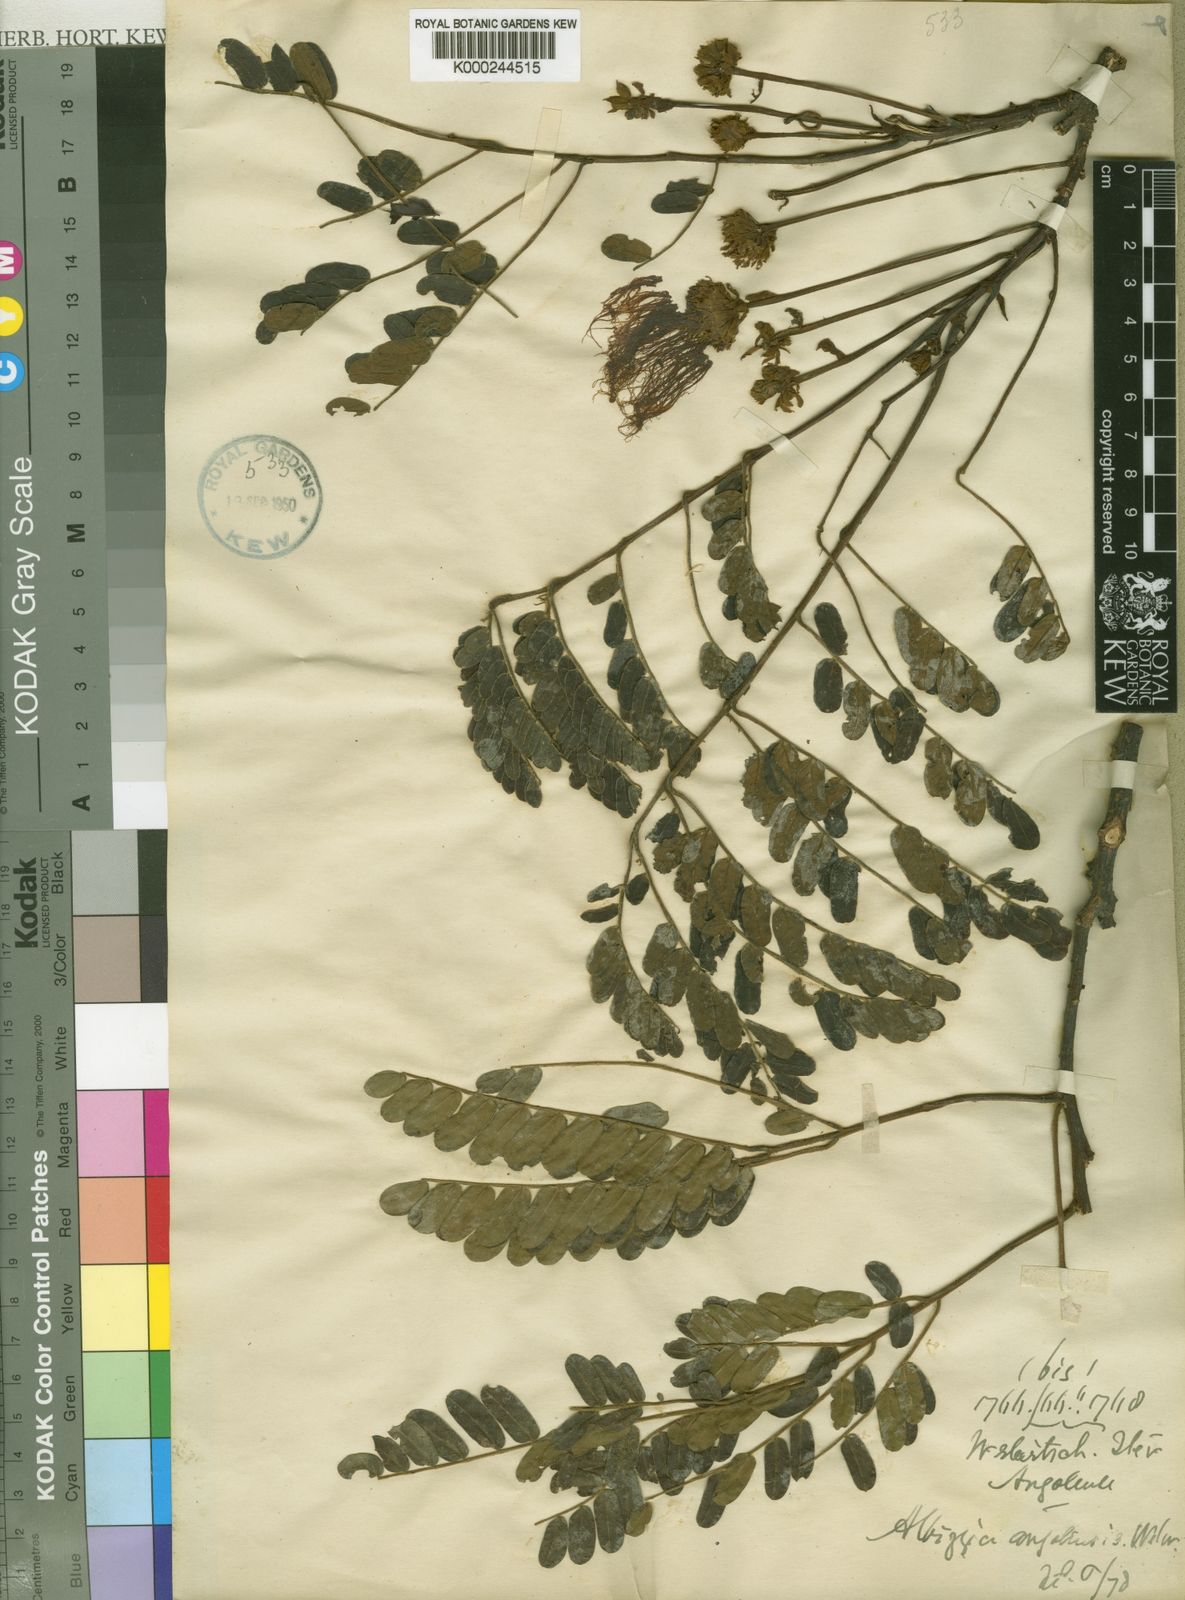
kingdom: Plantae
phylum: Tracheophyta
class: Magnoliopsida
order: Fabales
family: Fabaceae
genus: Albizia
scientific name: Albizia ferruginea
